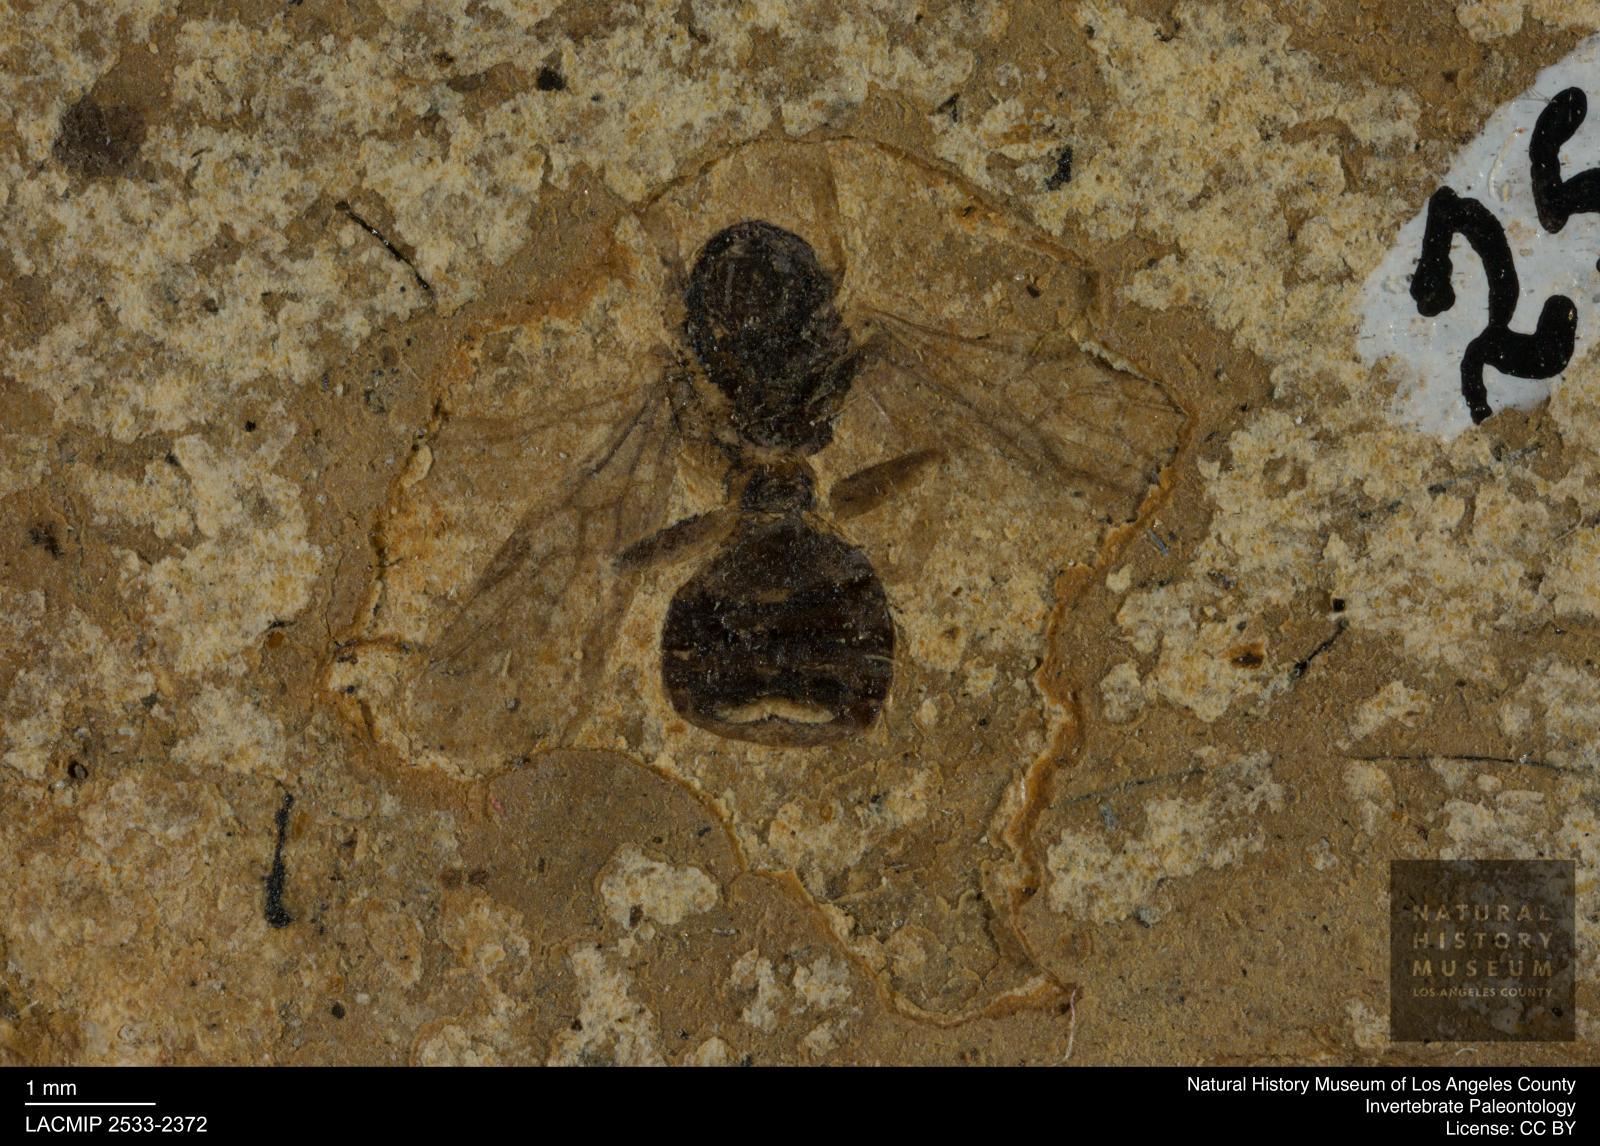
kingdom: Animalia
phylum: Arthropoda
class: Insecta
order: Hymenoptera
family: Formicidae
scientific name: Formicidae
